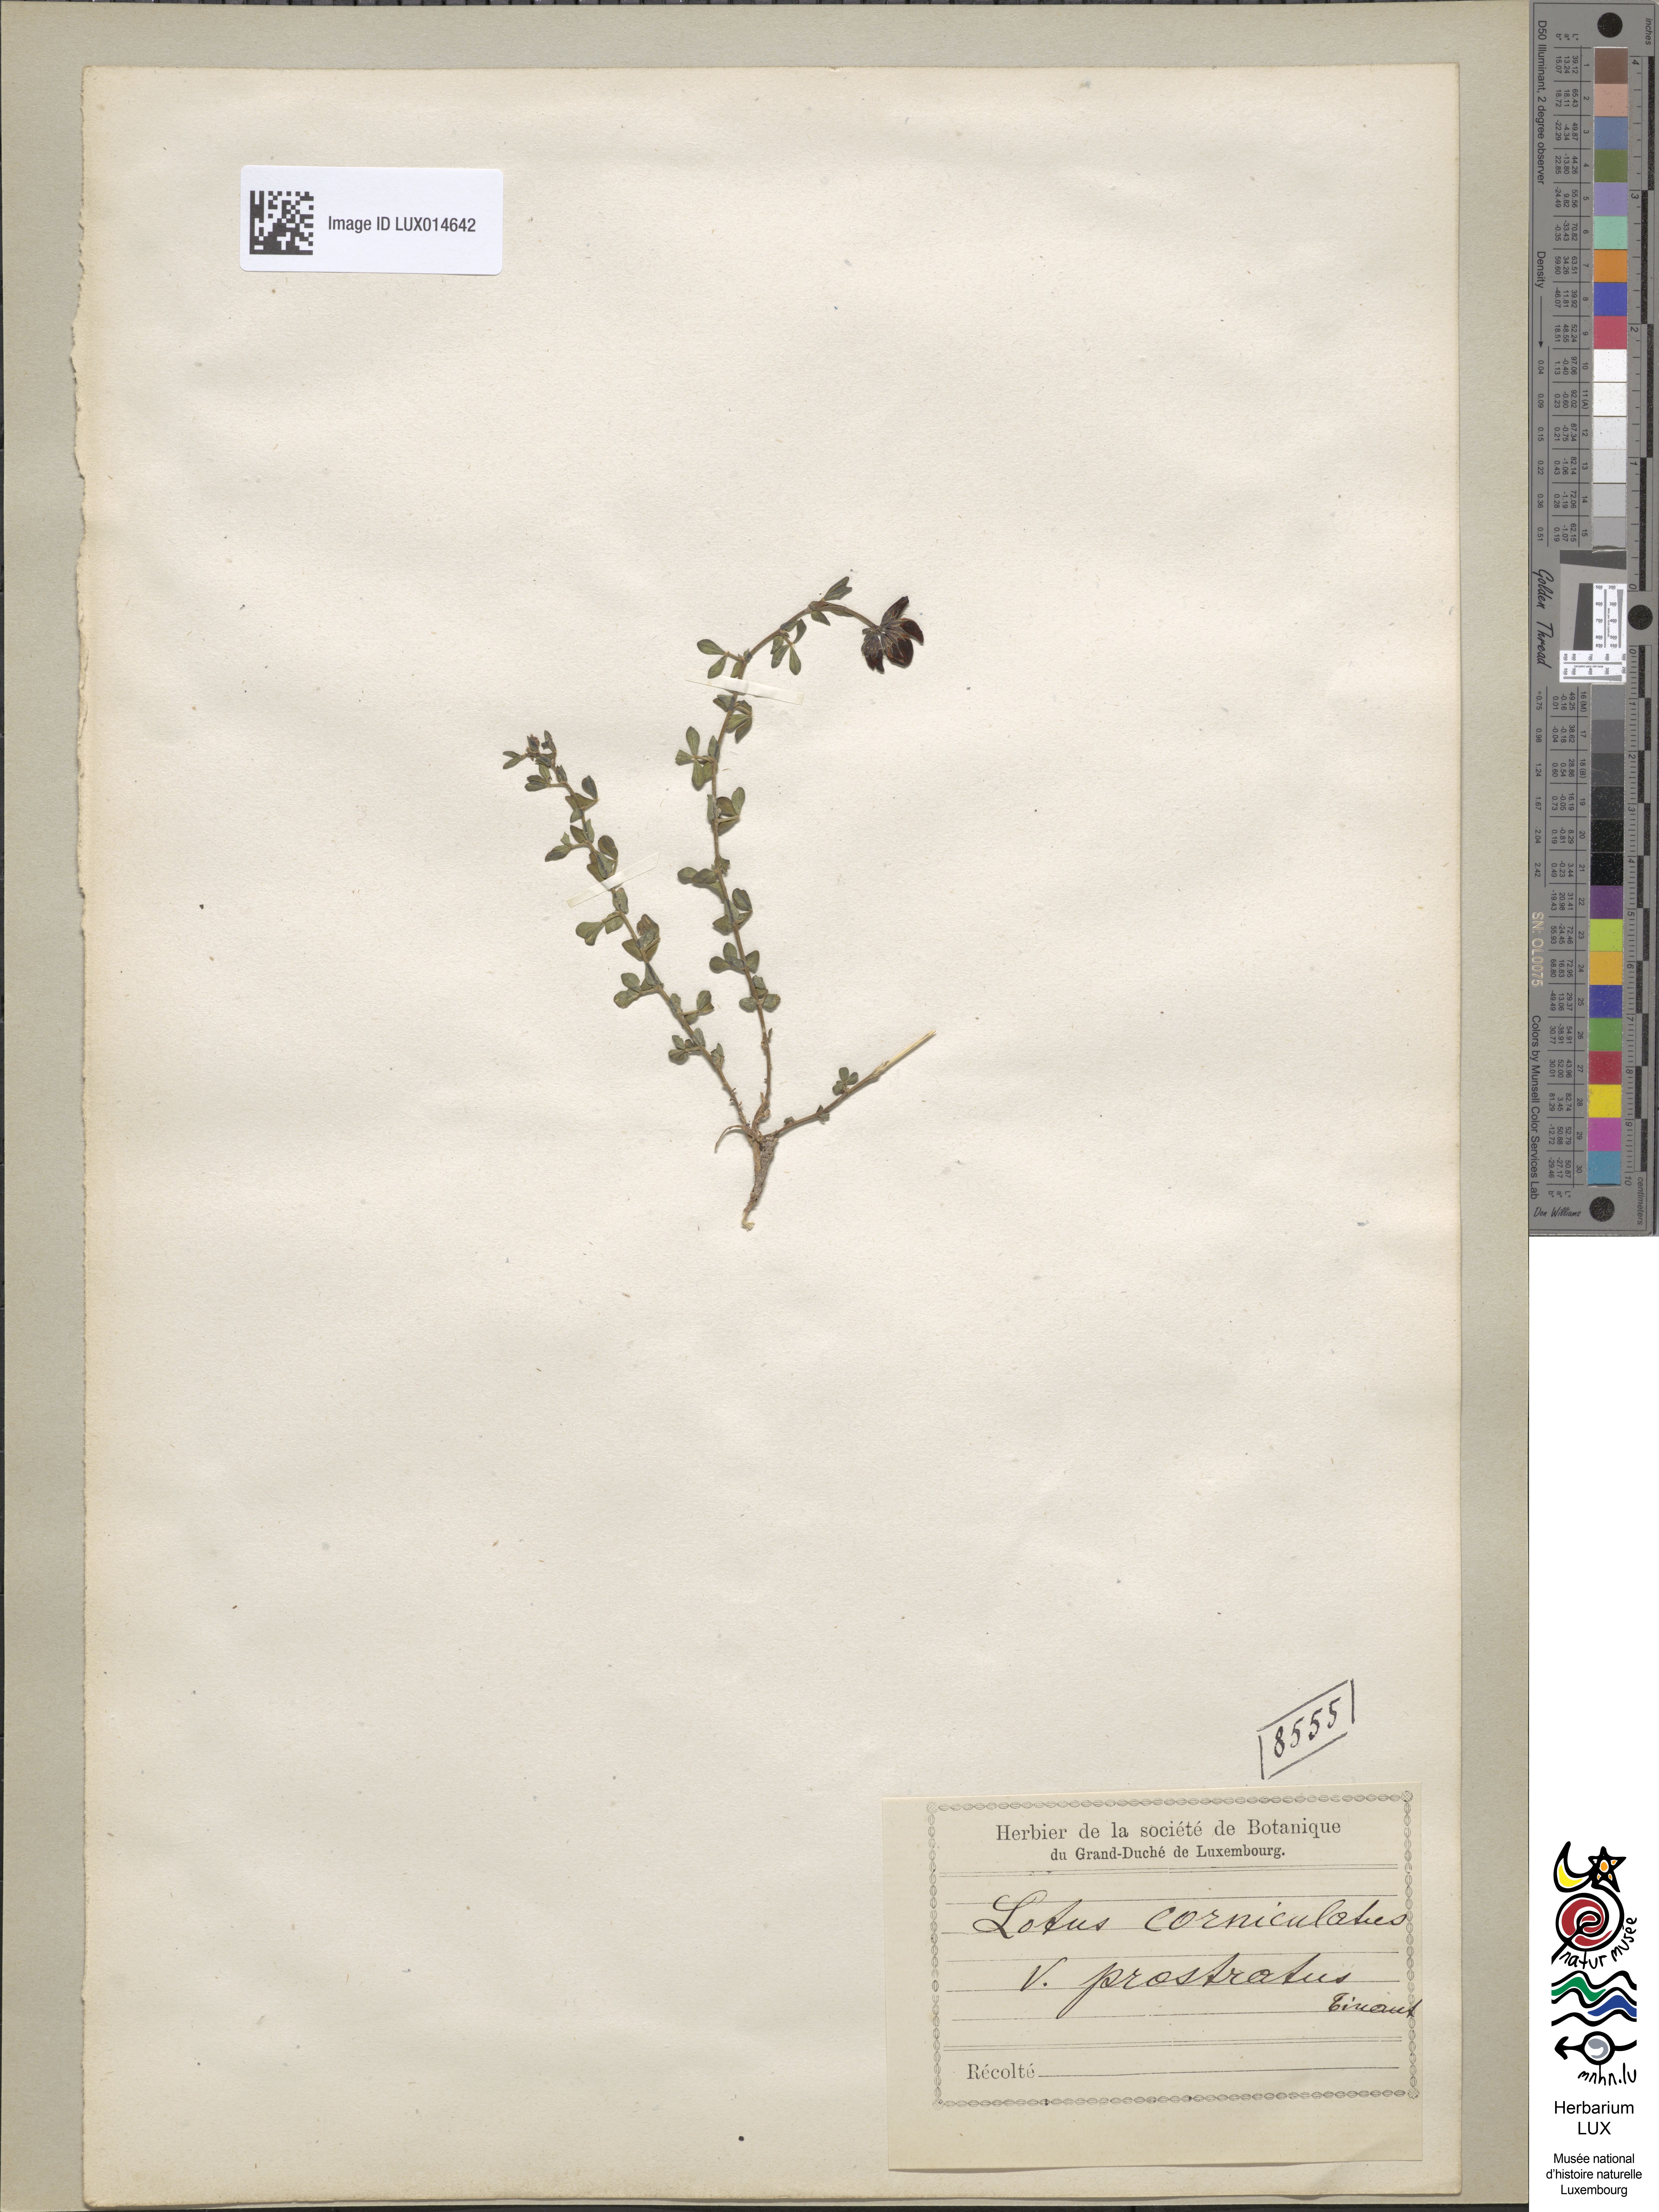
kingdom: Plantae
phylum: Tracheophyta
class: Magnoliopsida
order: Fabales
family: Fabaceae
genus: Lotus
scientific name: Lotus corniculatus
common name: Common bird's-foot-trefoil
